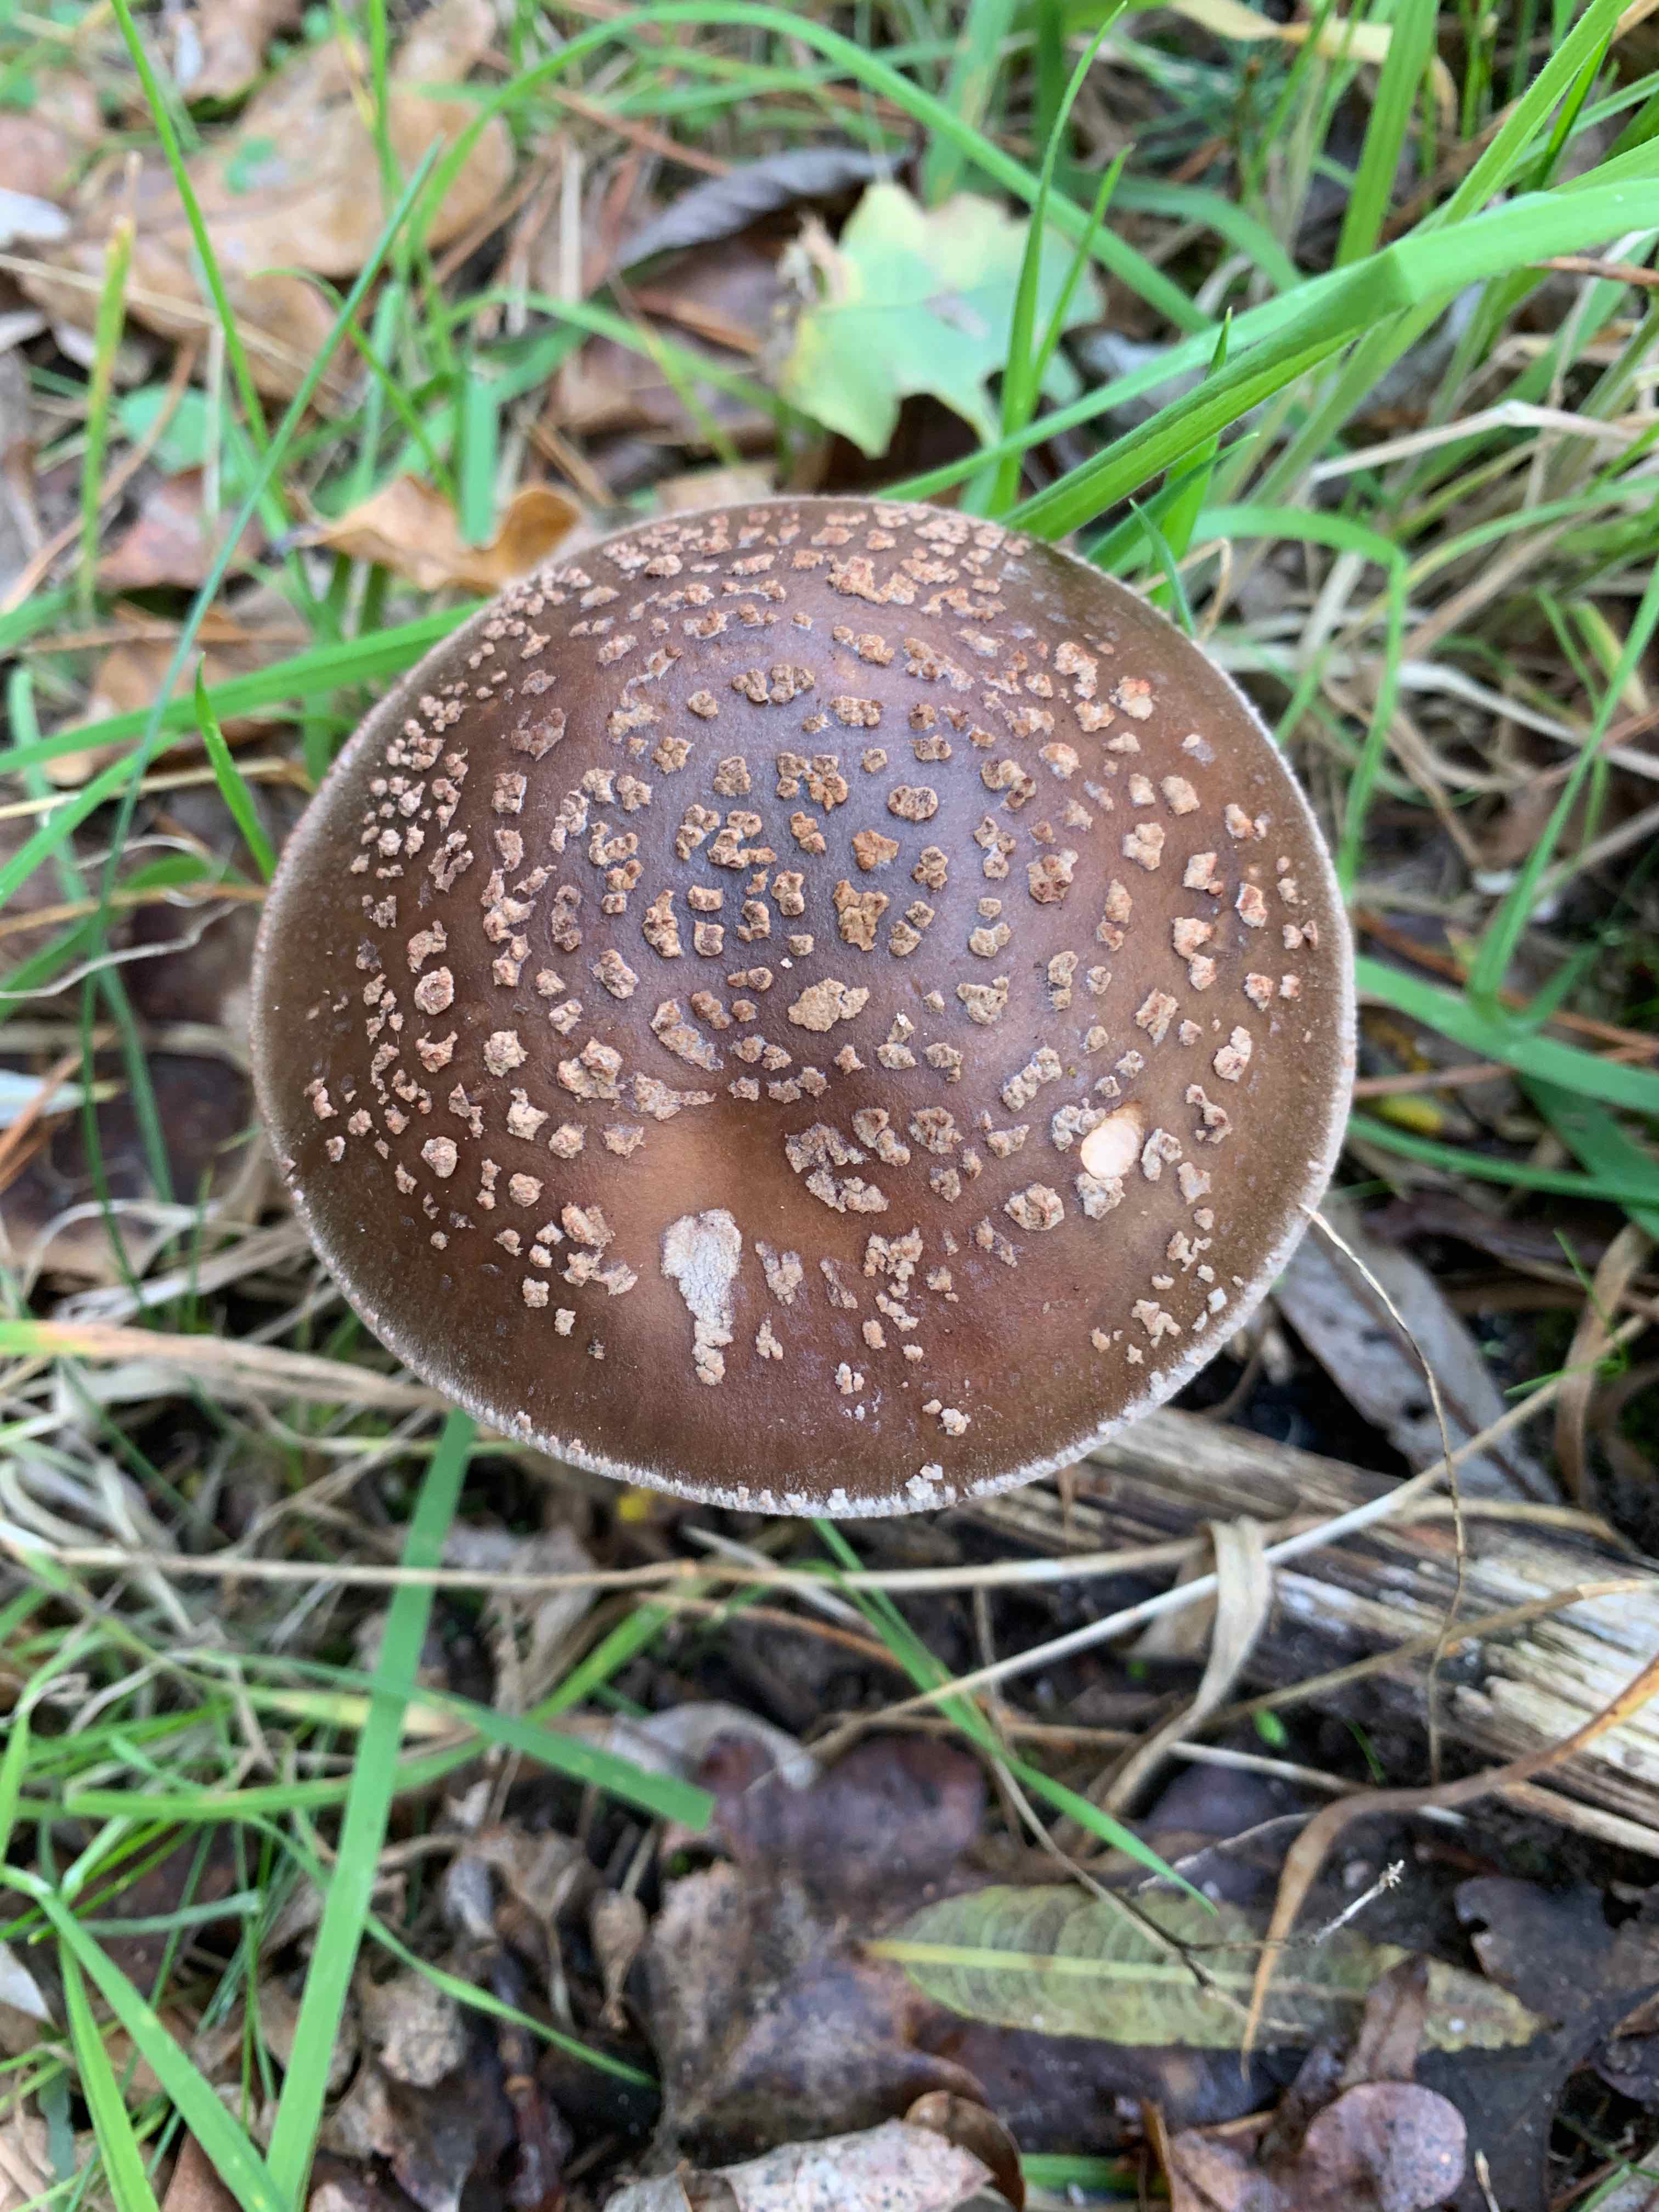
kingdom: Fungi
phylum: Basidiomycota
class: Agaricomycetes
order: Agaricales
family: Amanitaceae
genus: Amanita
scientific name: Amanita
